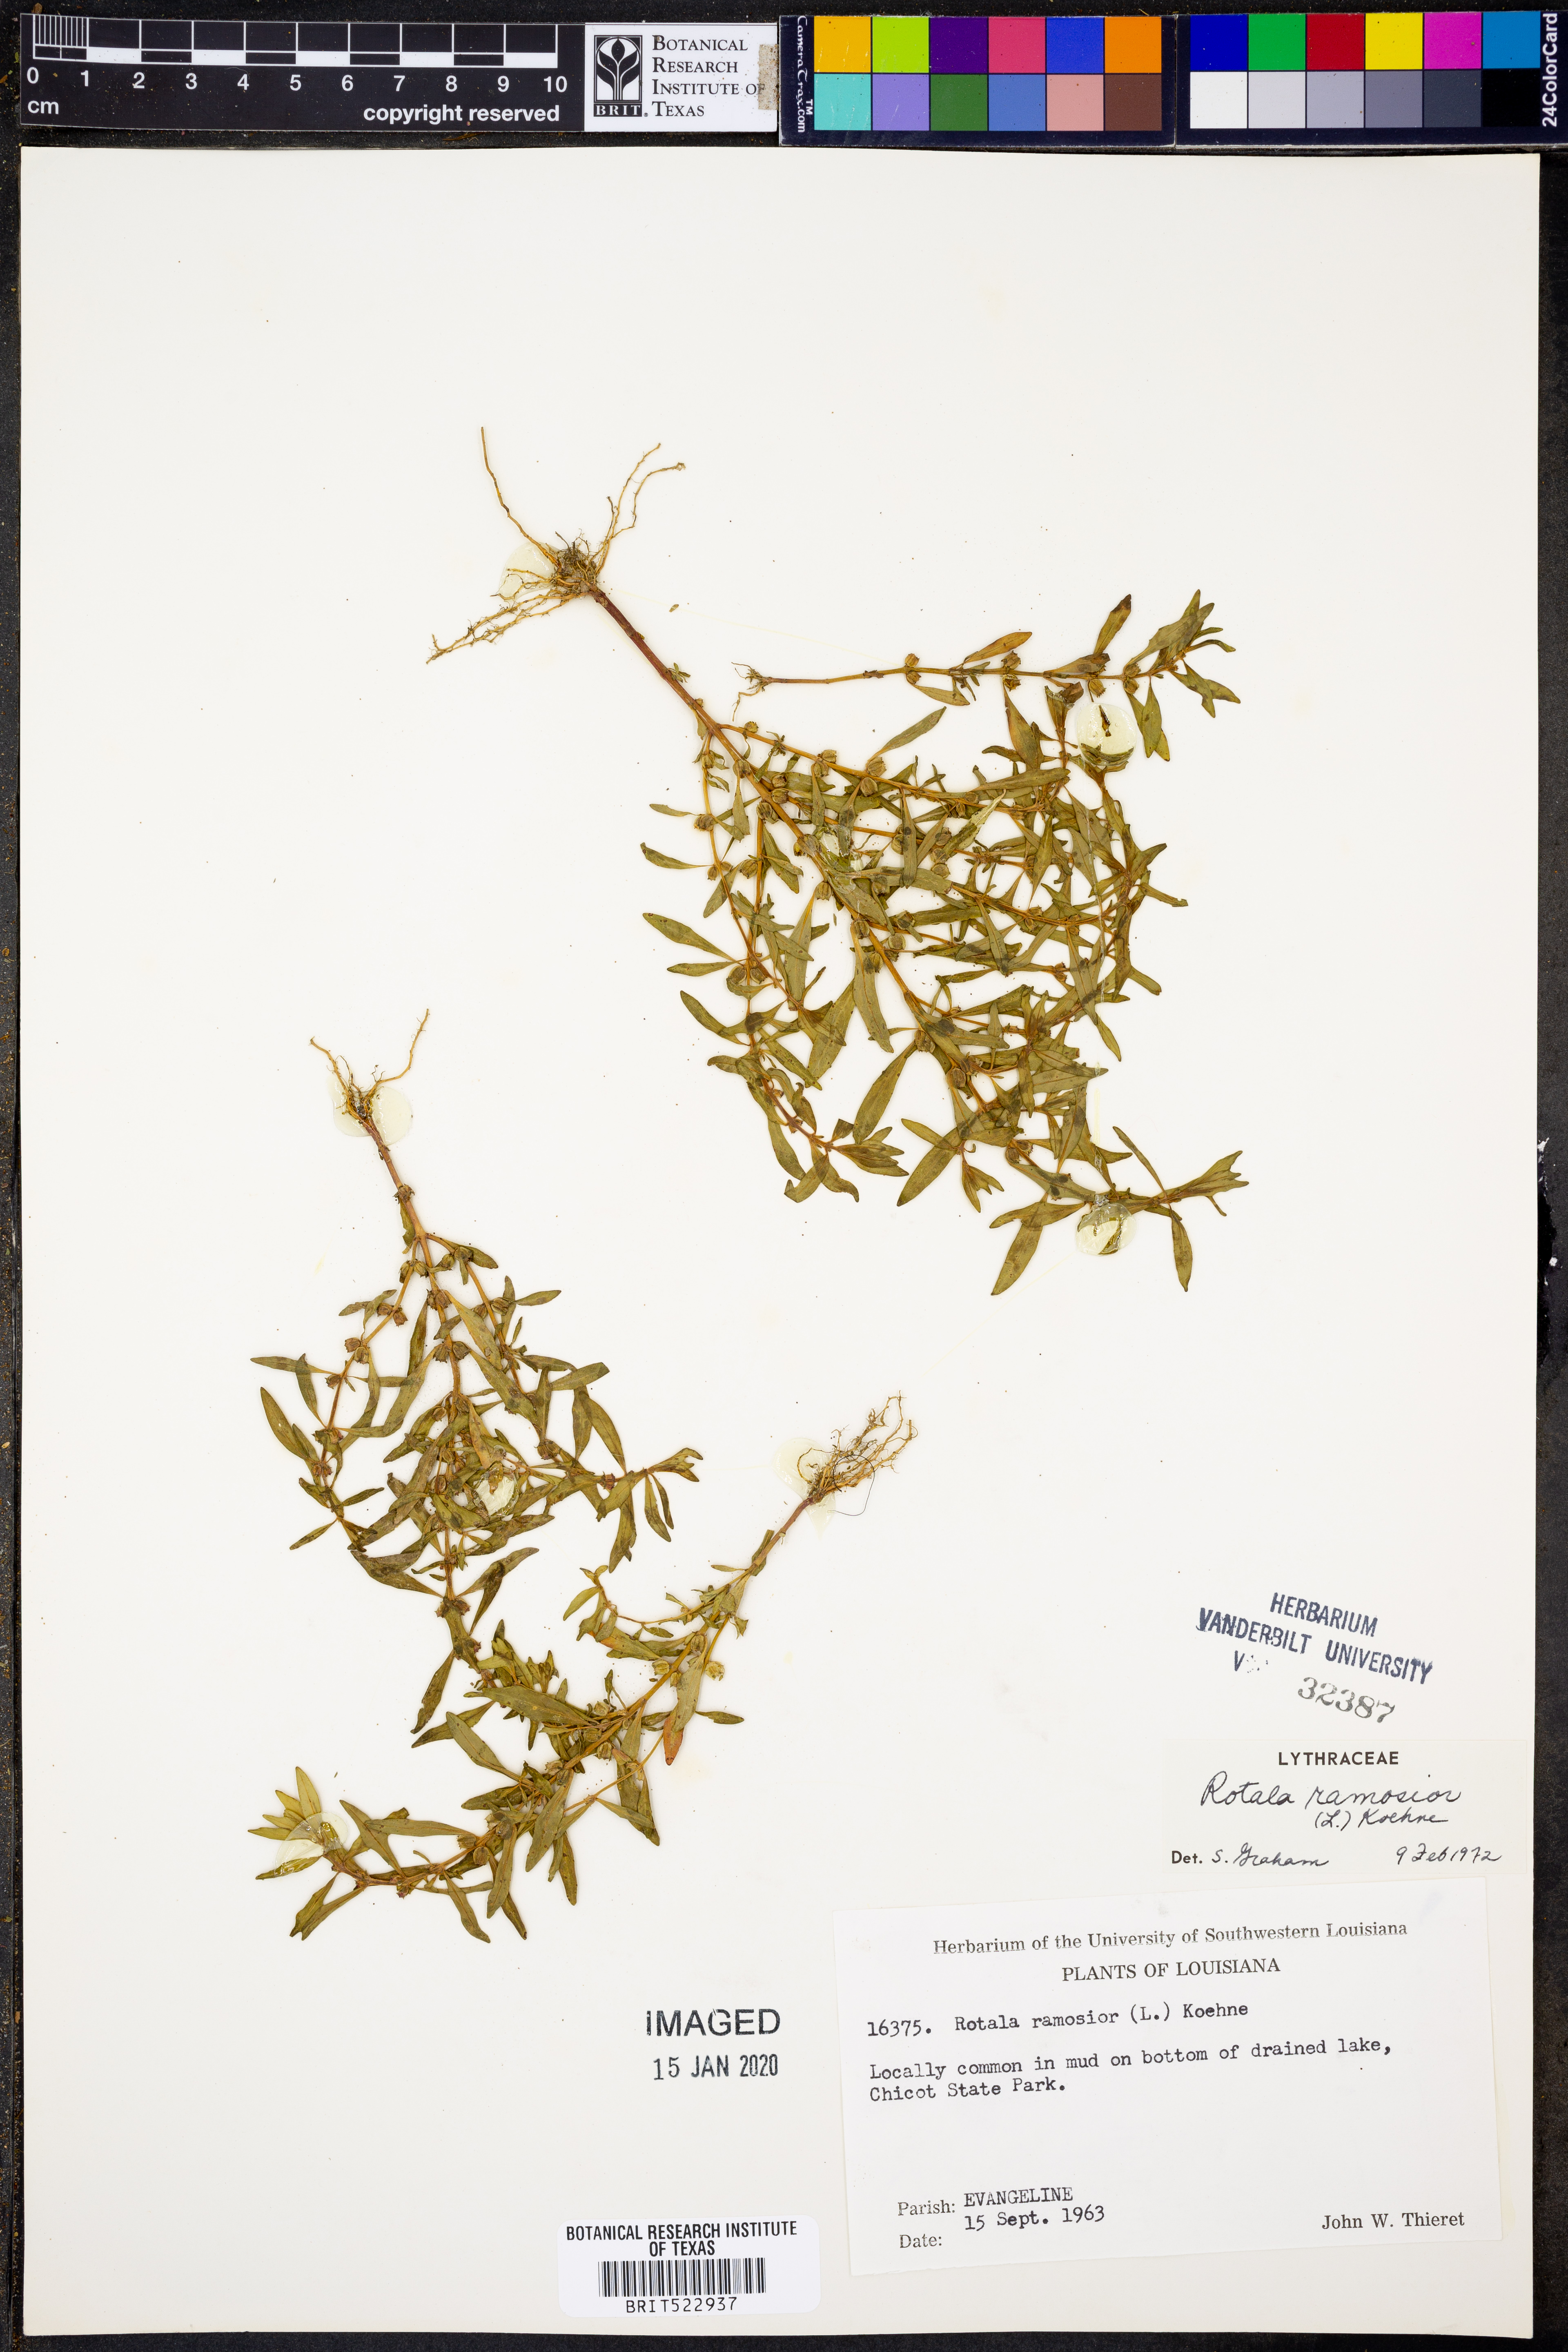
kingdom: Plantae
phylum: Tracheophyta
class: Magnoliopsida
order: Myrtales
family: Lythraceae
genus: Rotala
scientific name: Rotala ramosior
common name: Lowland rotala
